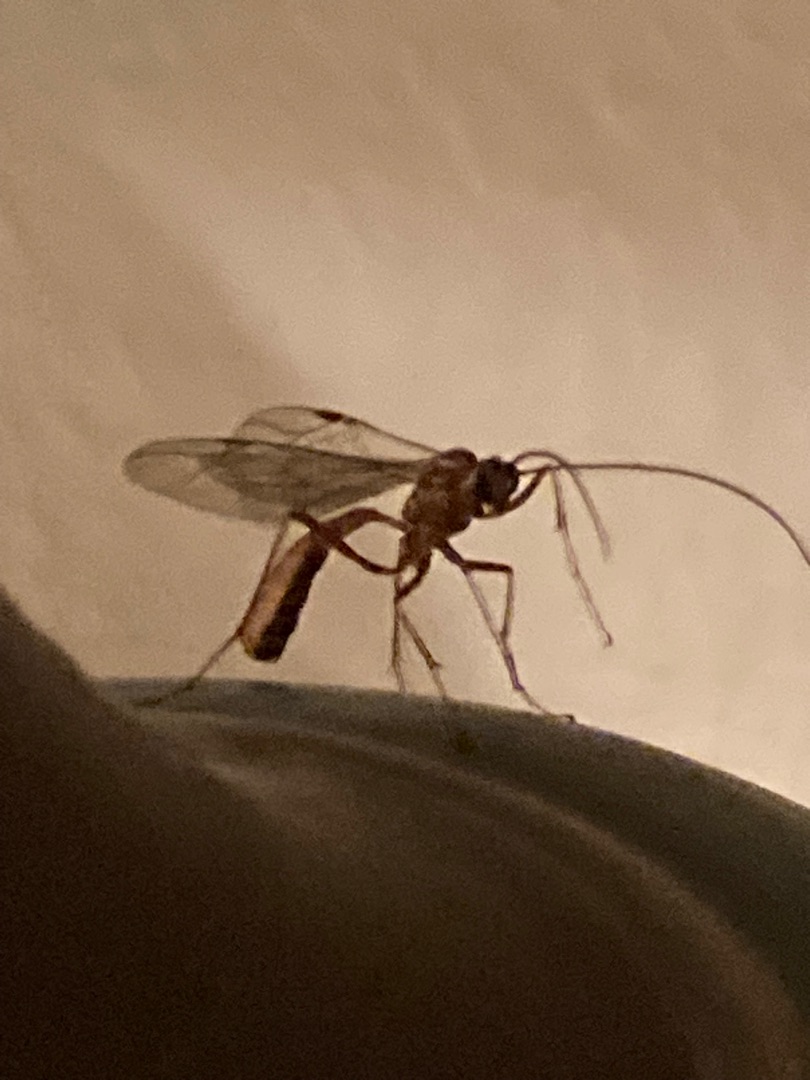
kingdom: Animalia
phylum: Arthropoda
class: Insecta
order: Hymenoptera
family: Ichneumonidae
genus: Ophion
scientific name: Ophion obscuratus
